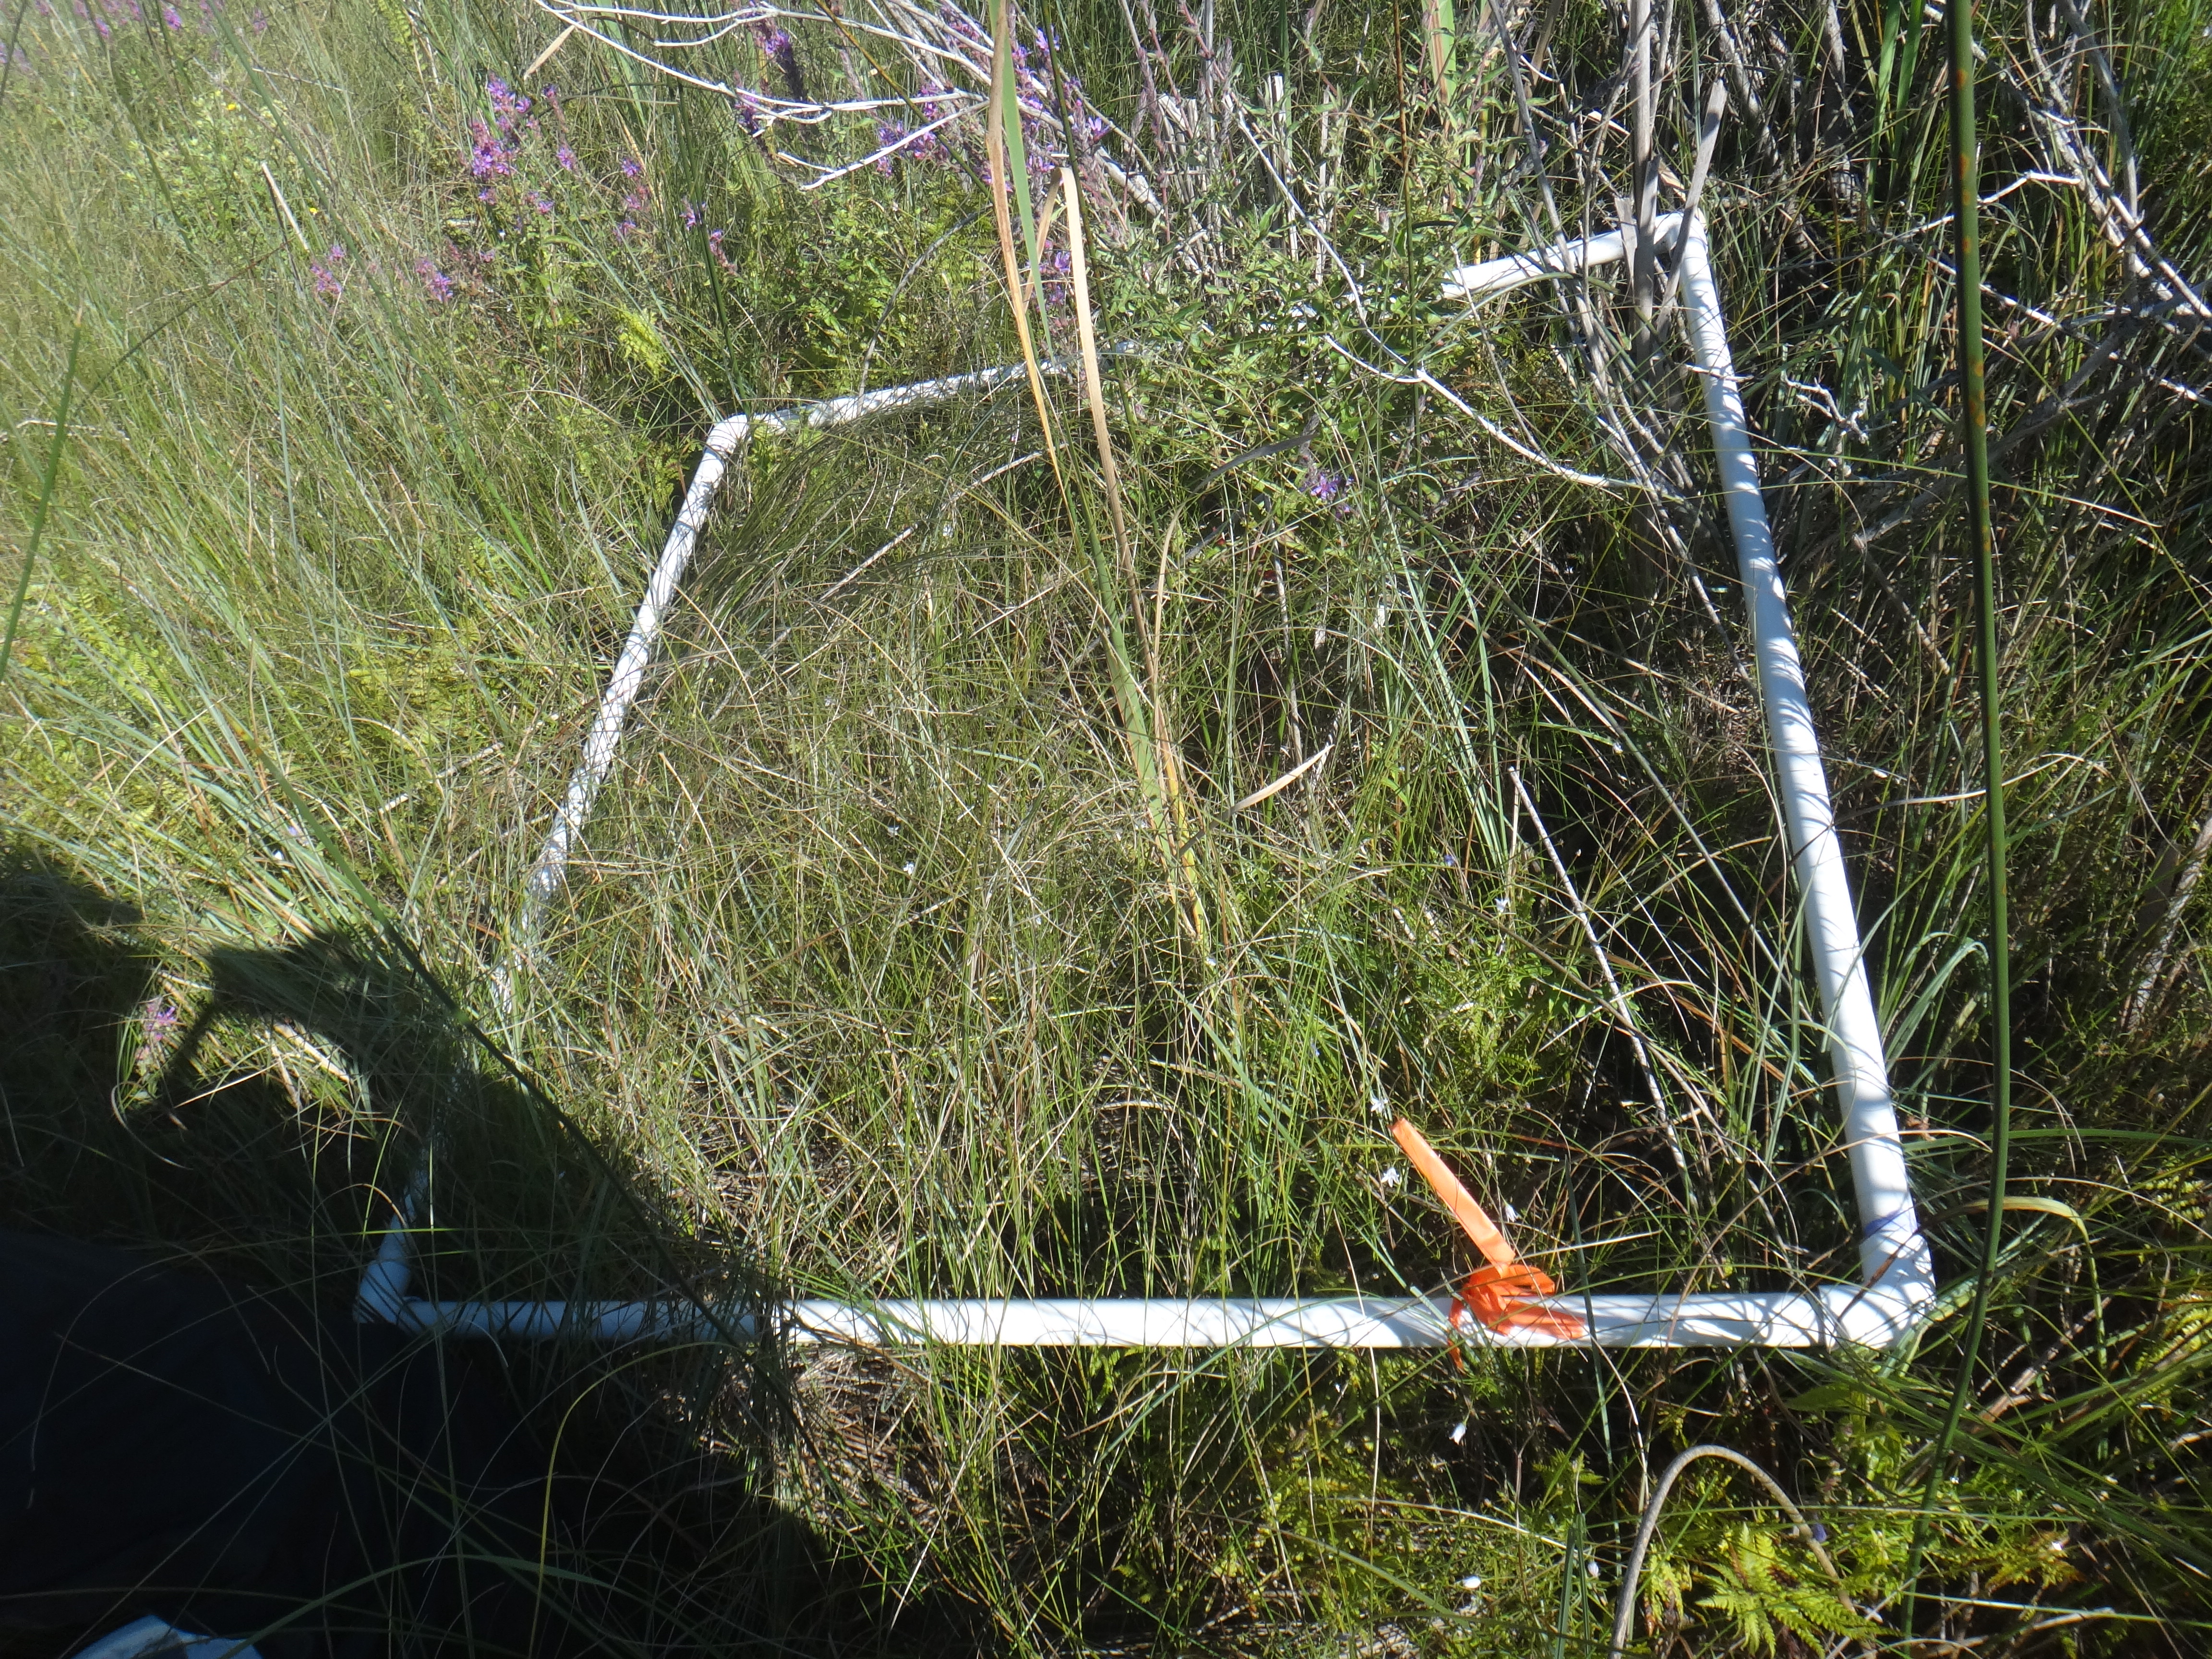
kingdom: Plantae
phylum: Tracheophyta
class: Liliopsida
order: Poales
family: Cyperaceae
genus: Carex
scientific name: Carex aquatilis
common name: Water sedge
